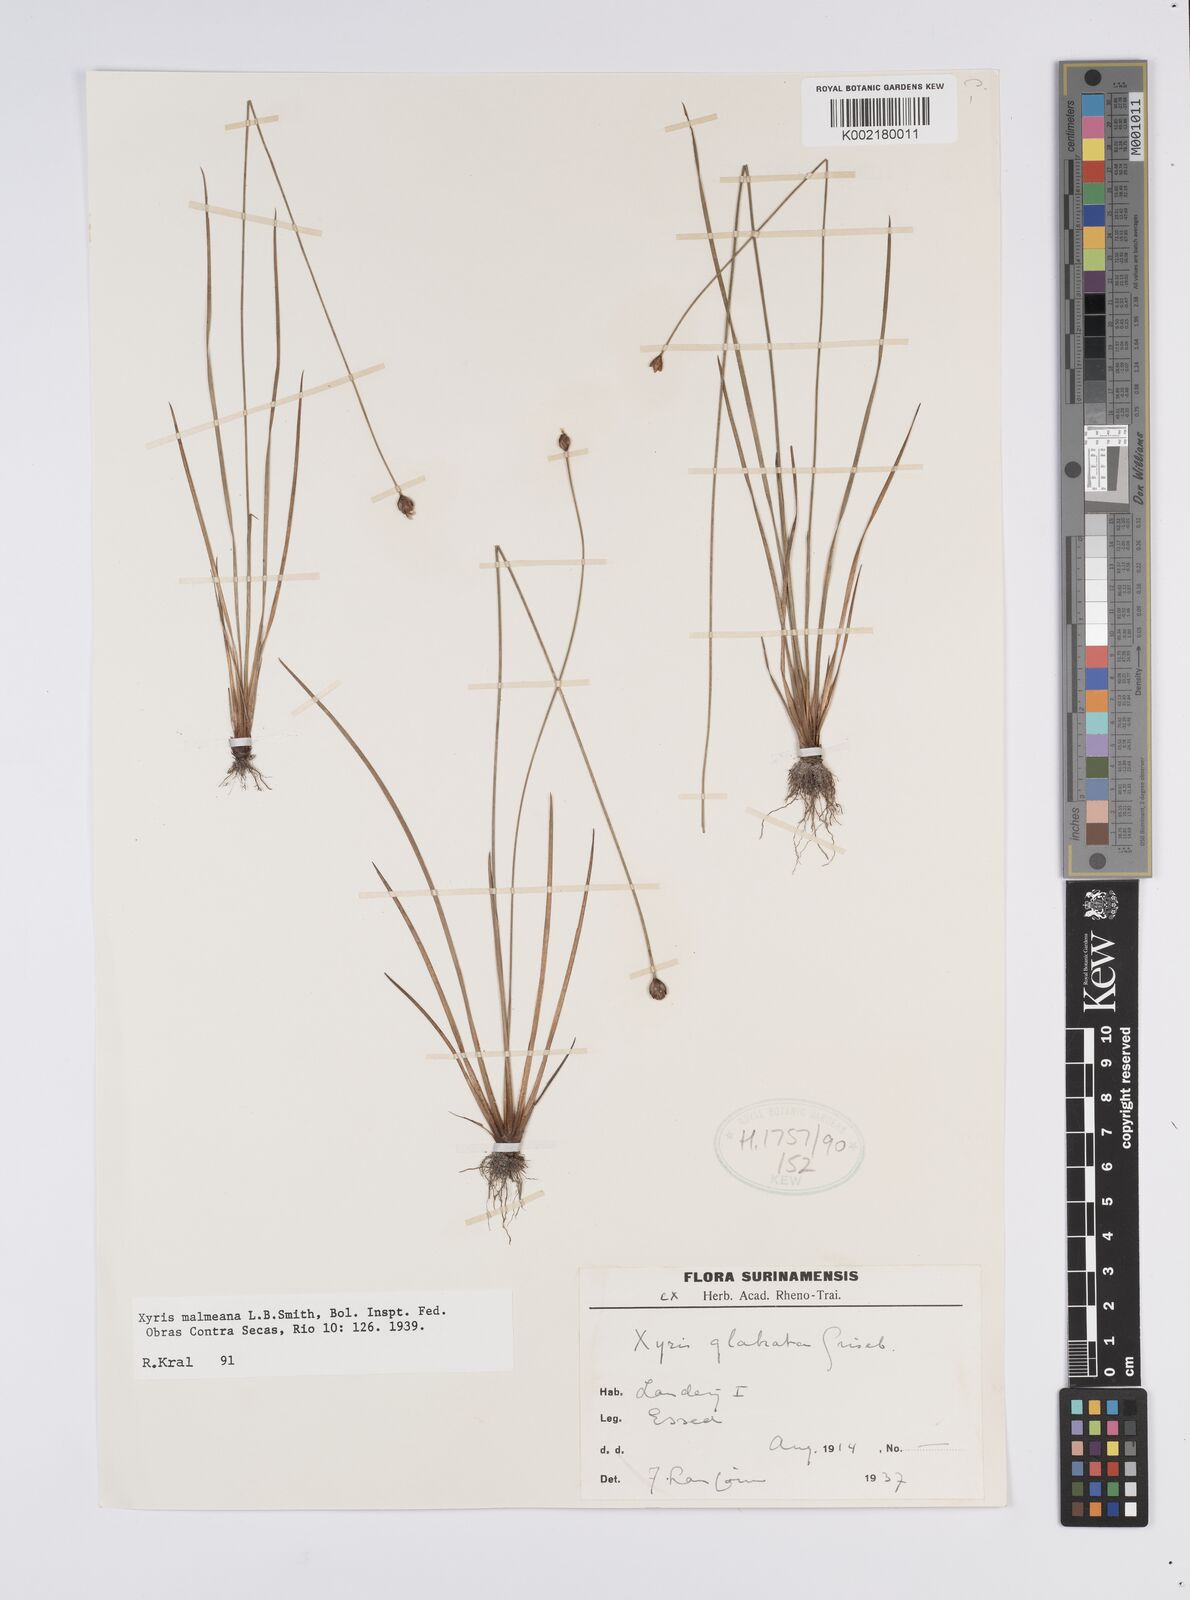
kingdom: Plantae
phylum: Tracheophyta
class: Liliopsida
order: Poales
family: Xyridaceae
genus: Xyris
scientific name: Xyris malmeana
